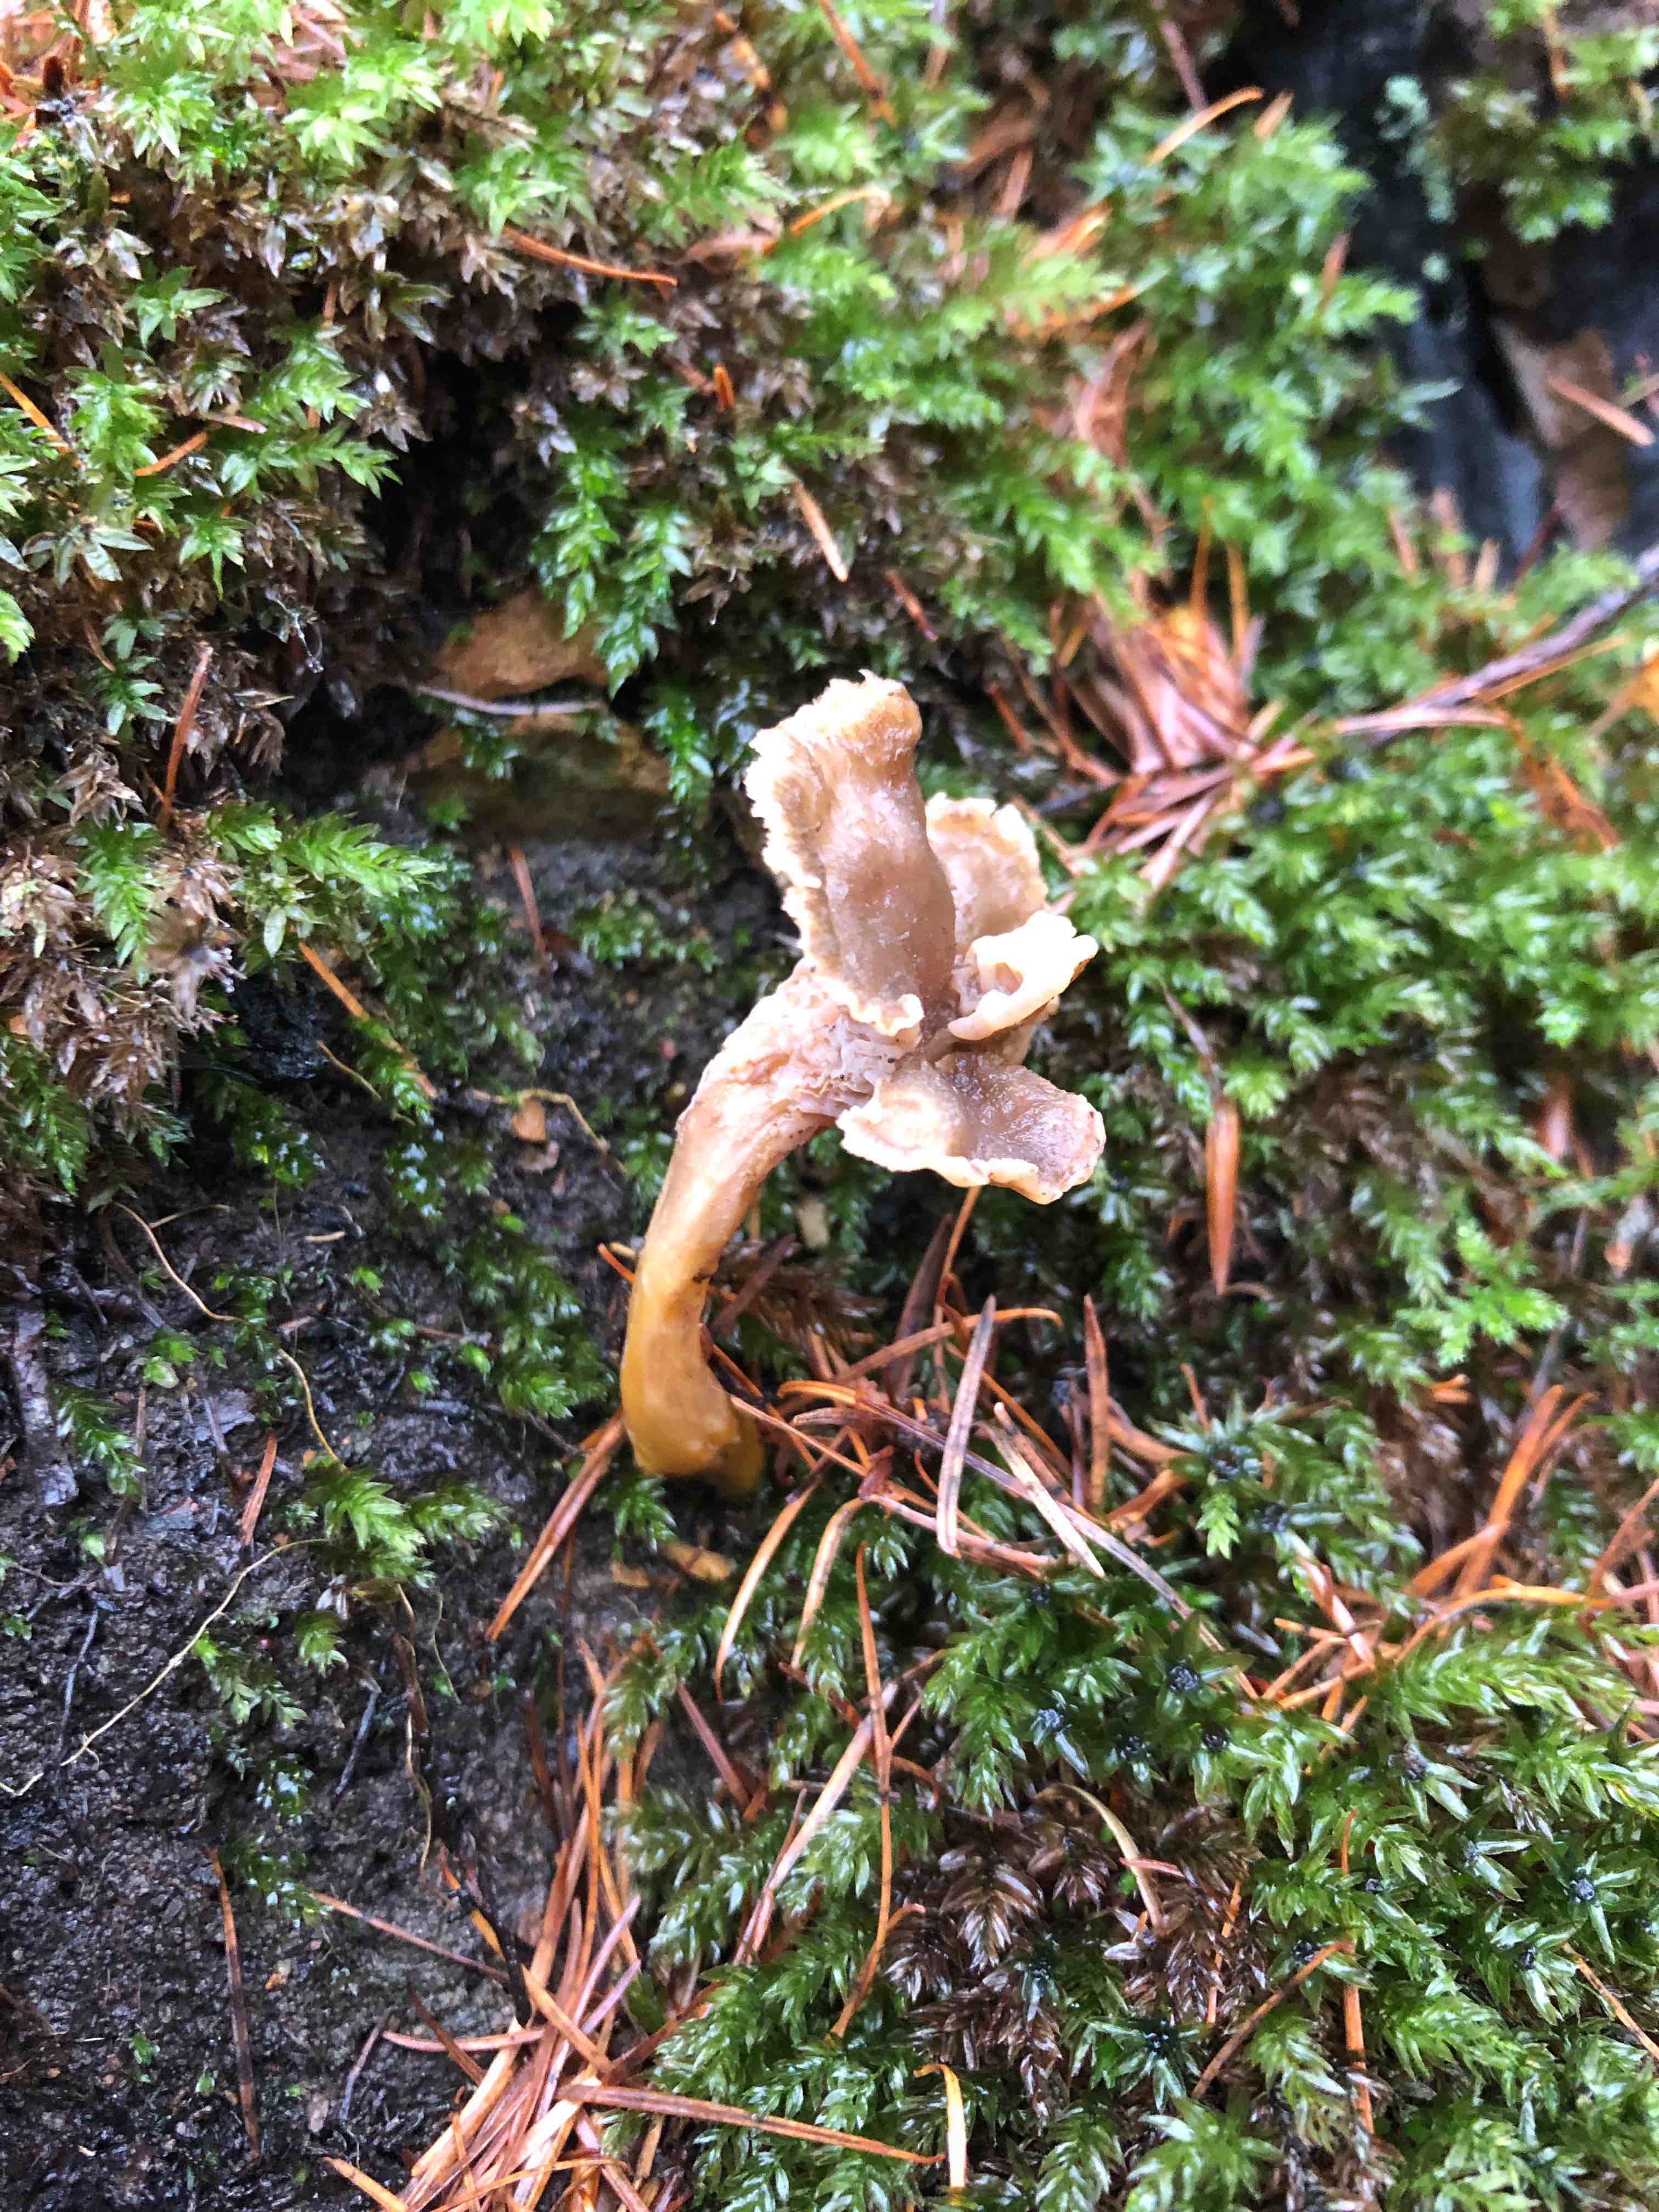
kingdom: Fungi
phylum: Basidiomycota
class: Agaricomycetes
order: Cantharellales
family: Hydnaceae
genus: Craterellus
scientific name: Craterellus tubaeformis
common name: tragt-kantarel
